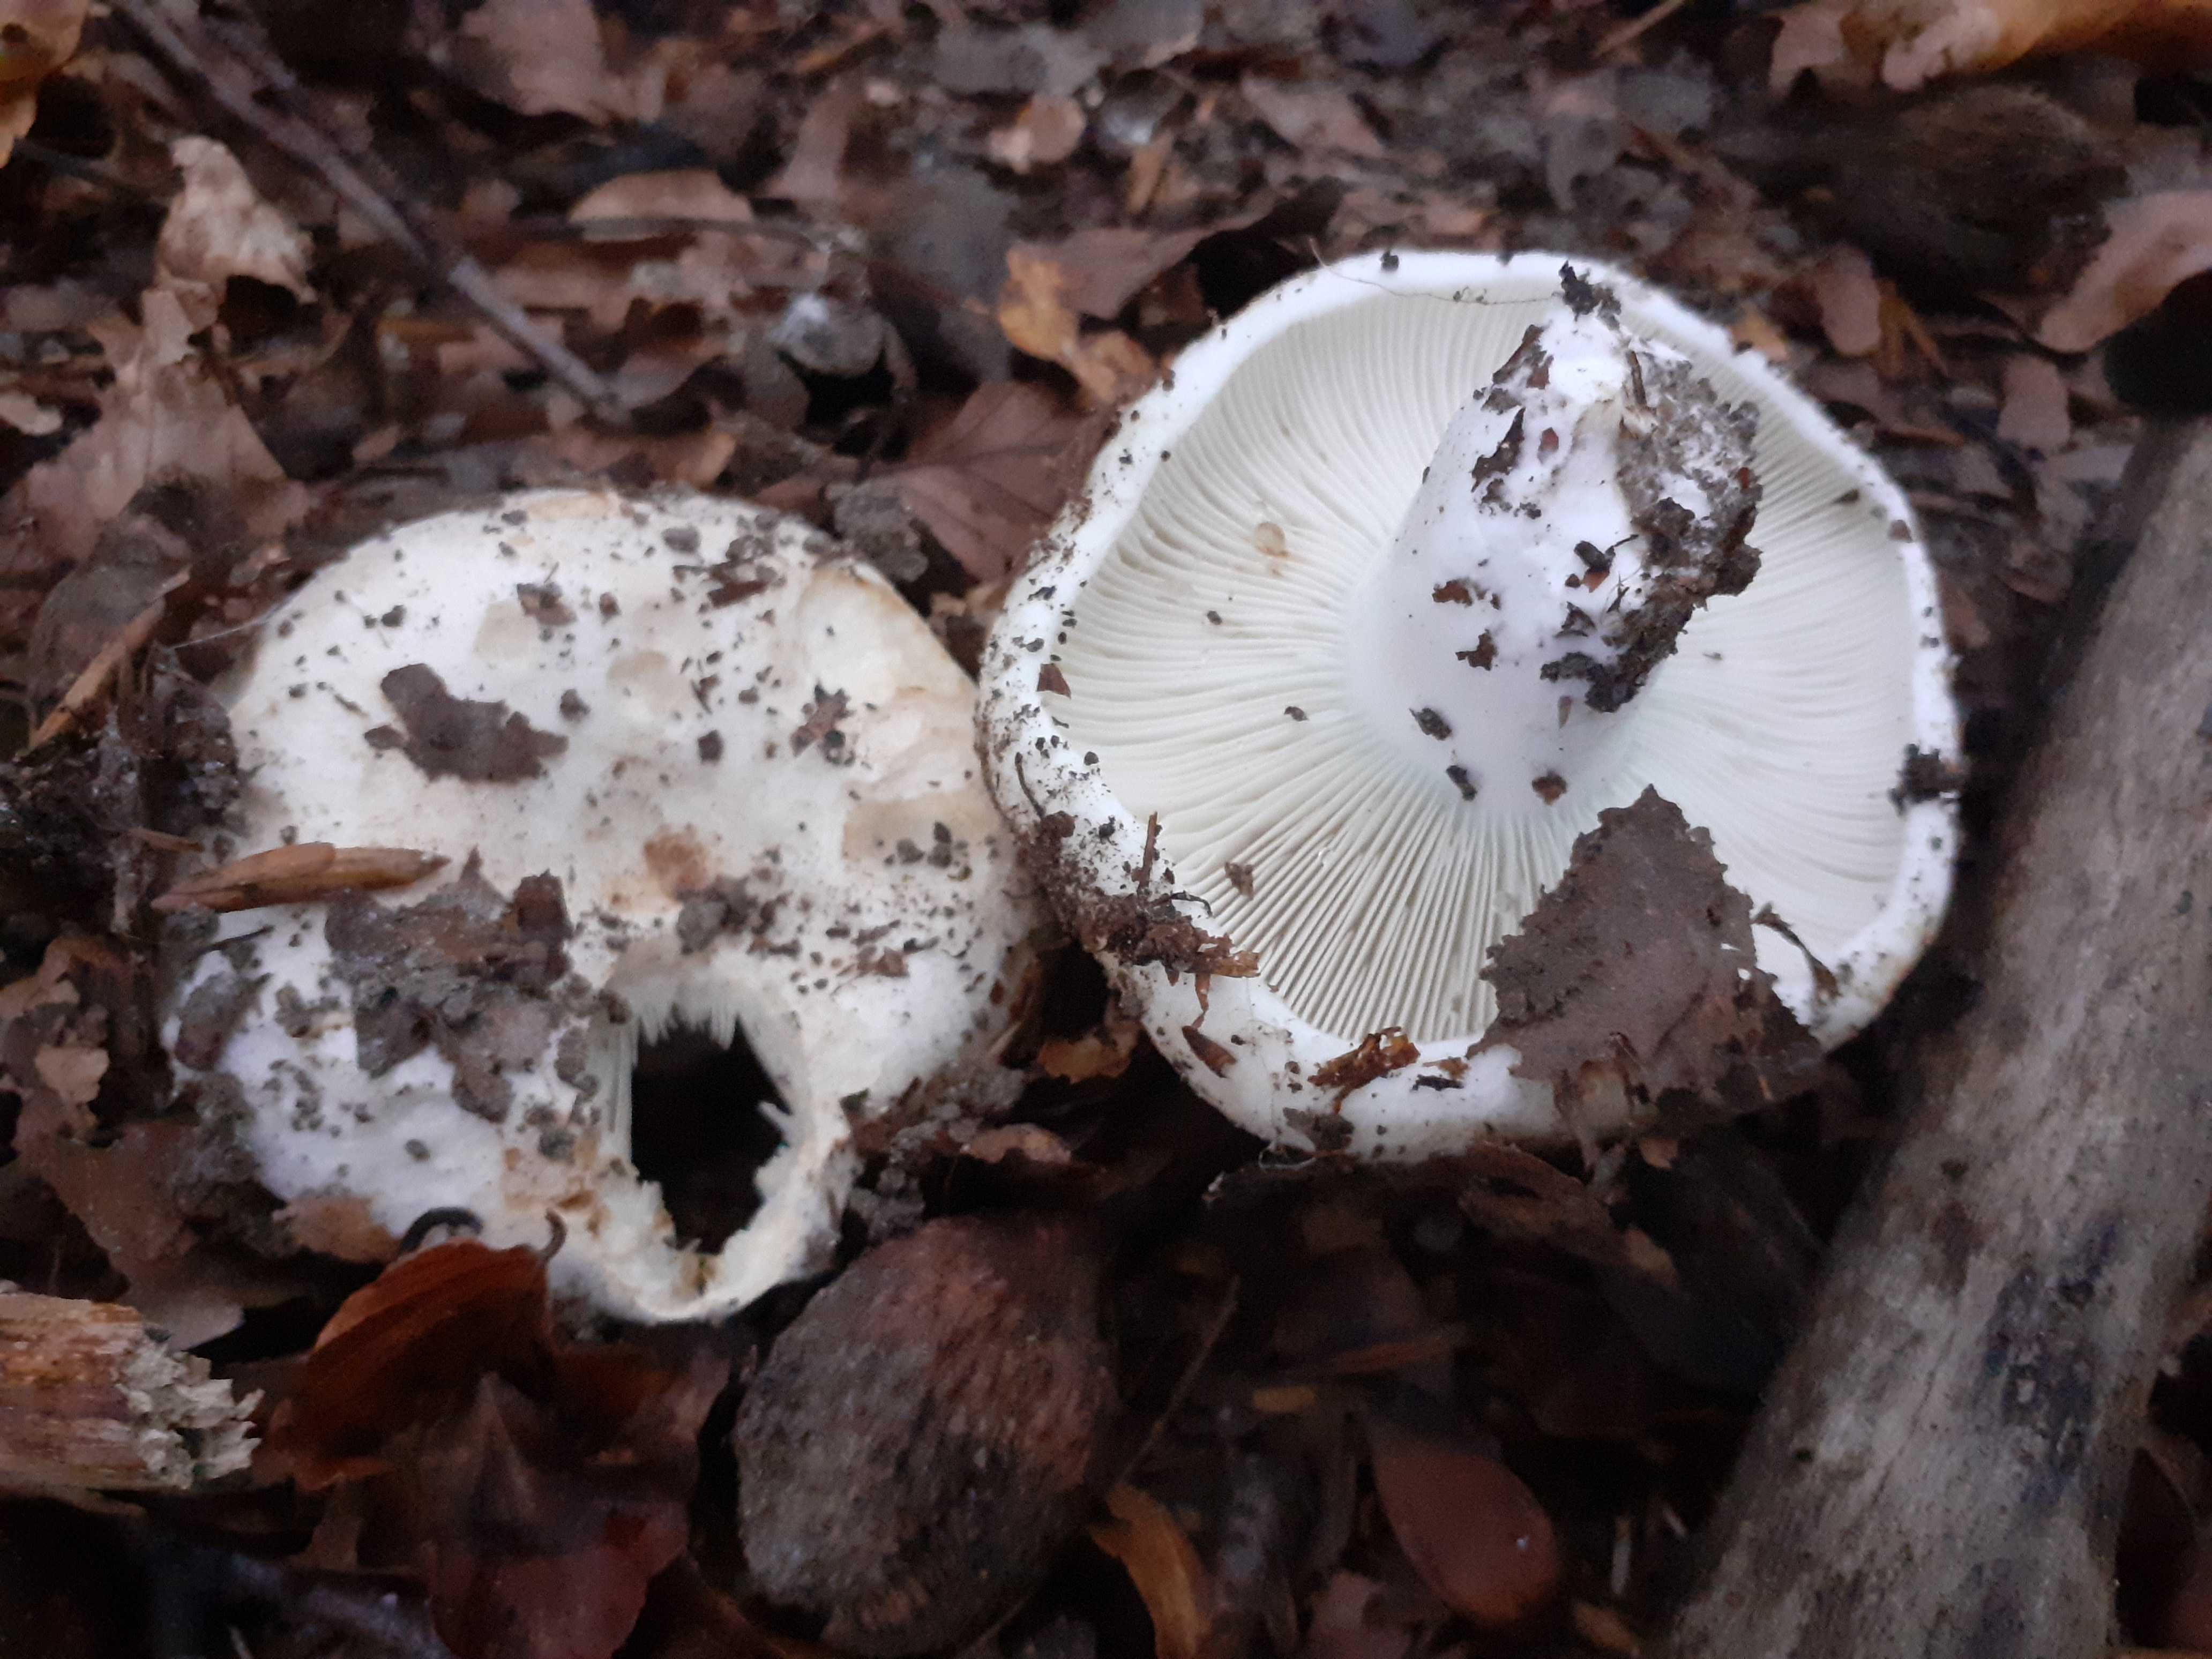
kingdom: Fungi
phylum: Basidiomycota
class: Agaricomycetes
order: Russulales
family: Russulaceae
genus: Russula
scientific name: Russula chloroides
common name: grønhalset tragt-skørhat
